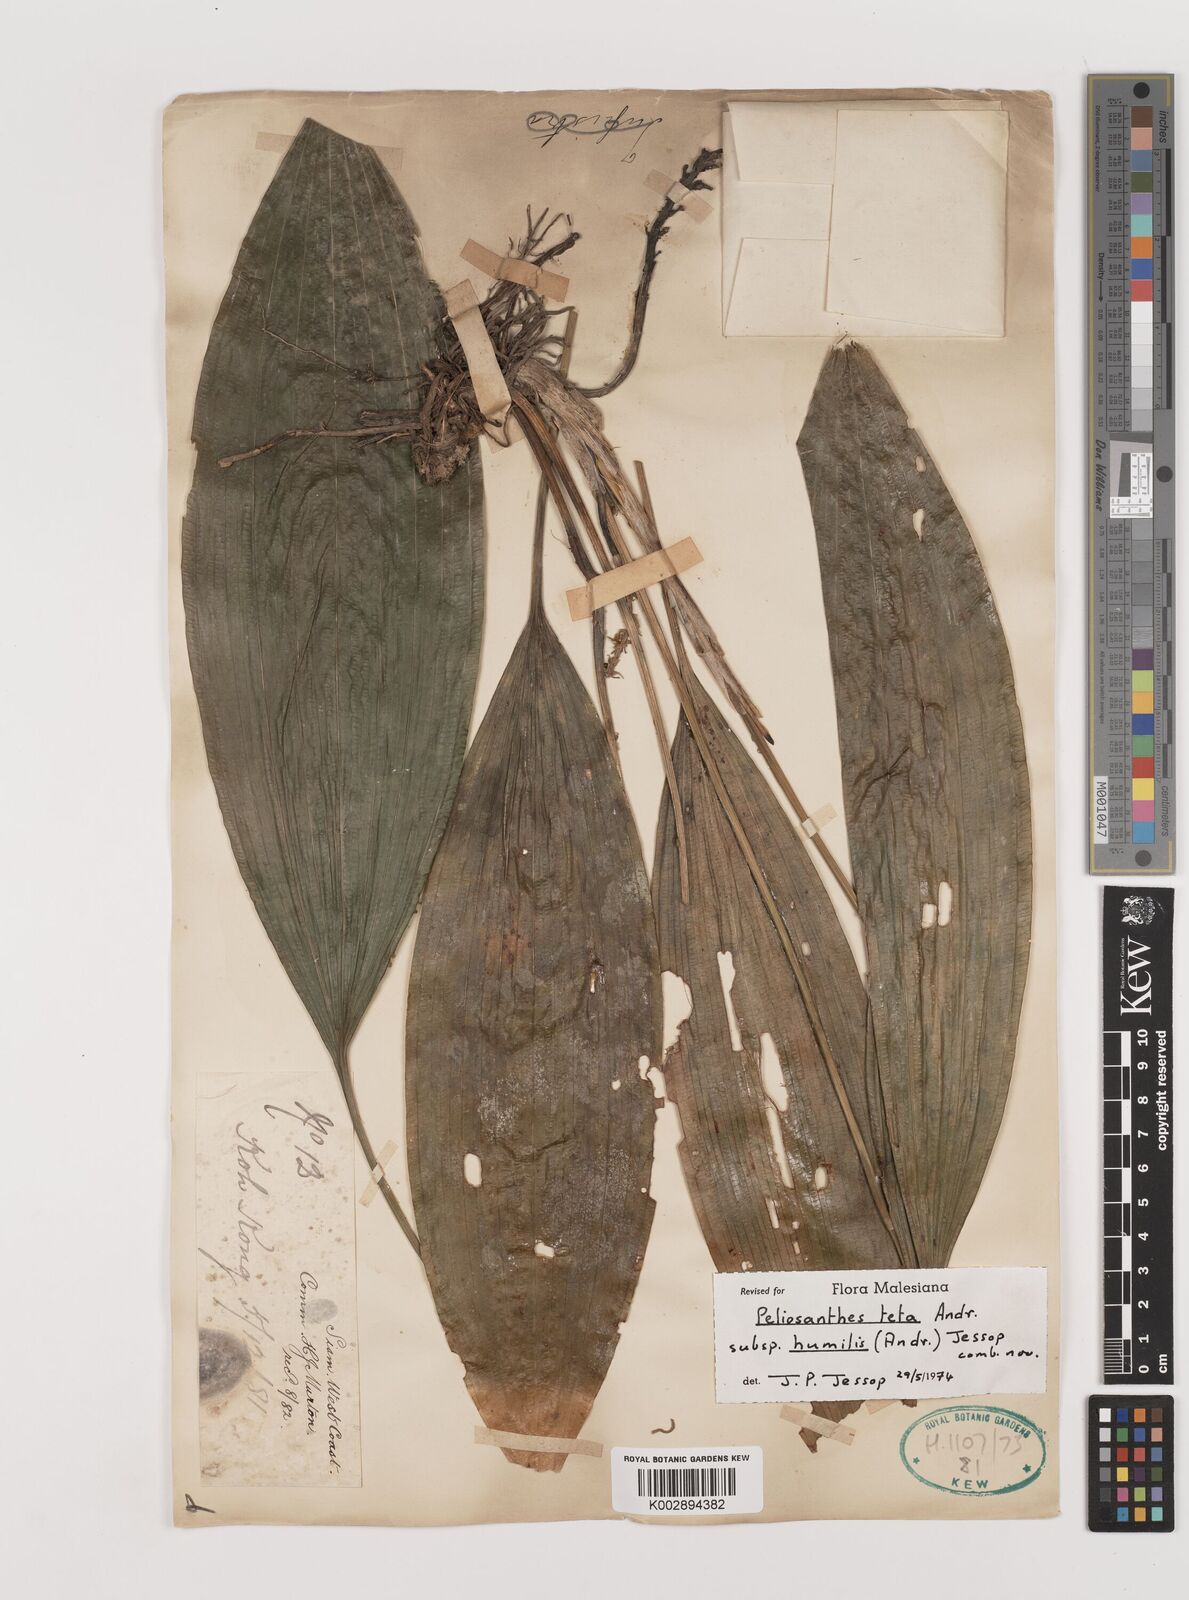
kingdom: Plantae
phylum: Tracheophyta
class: Liliopsida
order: Asparagales
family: Asparagaceae
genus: Peliosanthes
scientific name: Peliosanthes teta
